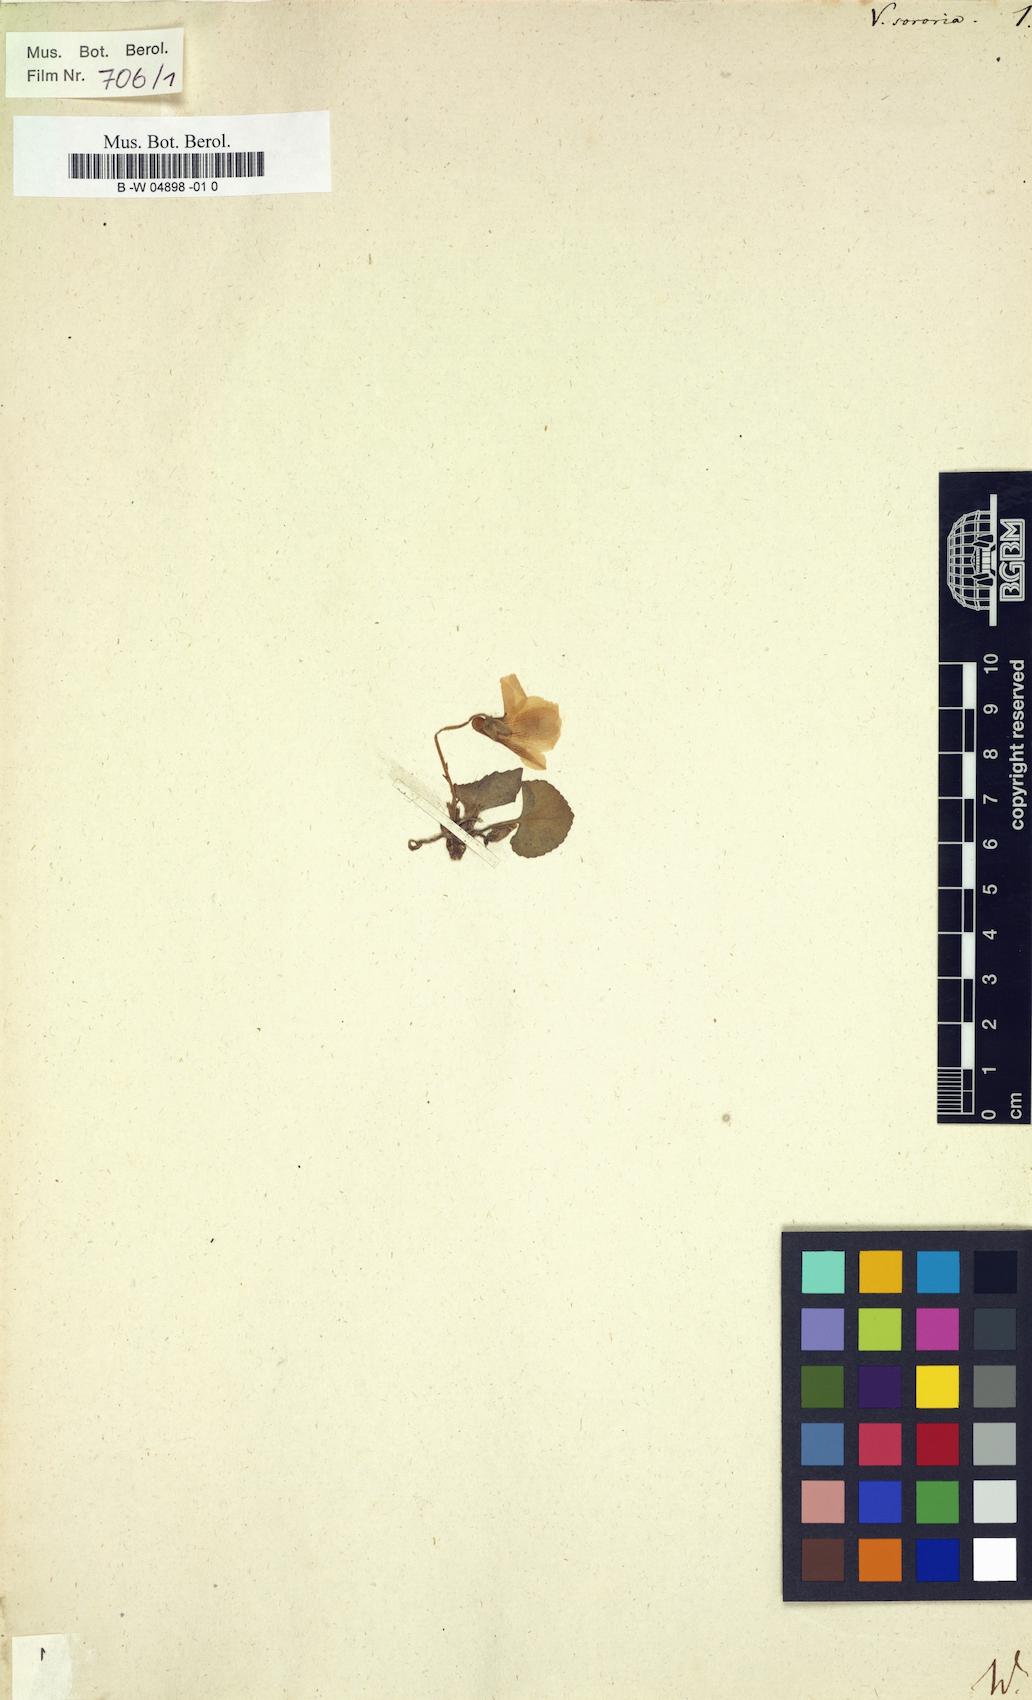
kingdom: Plantae
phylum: Tracheophyta
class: Magnoliopsida
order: Malpighiales
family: Violaceae
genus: Viola
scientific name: Viola sororia
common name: Dooryard violet
